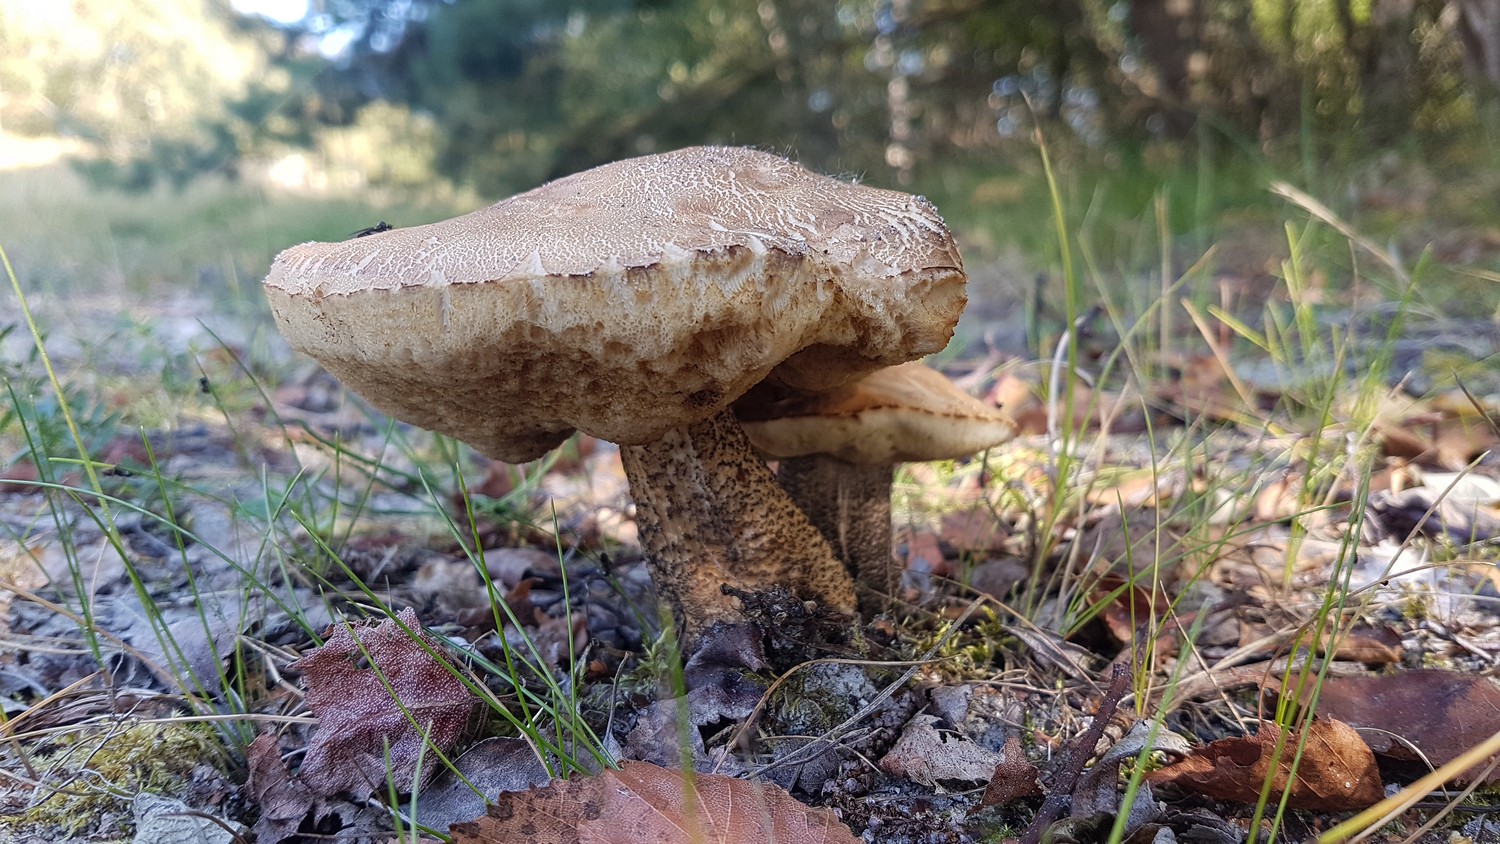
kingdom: Fungi
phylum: Basidiomycota
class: Agaricomycetes
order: Boletales
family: Boletaceae
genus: Leccinum
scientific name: Leccinum scabrum
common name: brun skælrørhat
